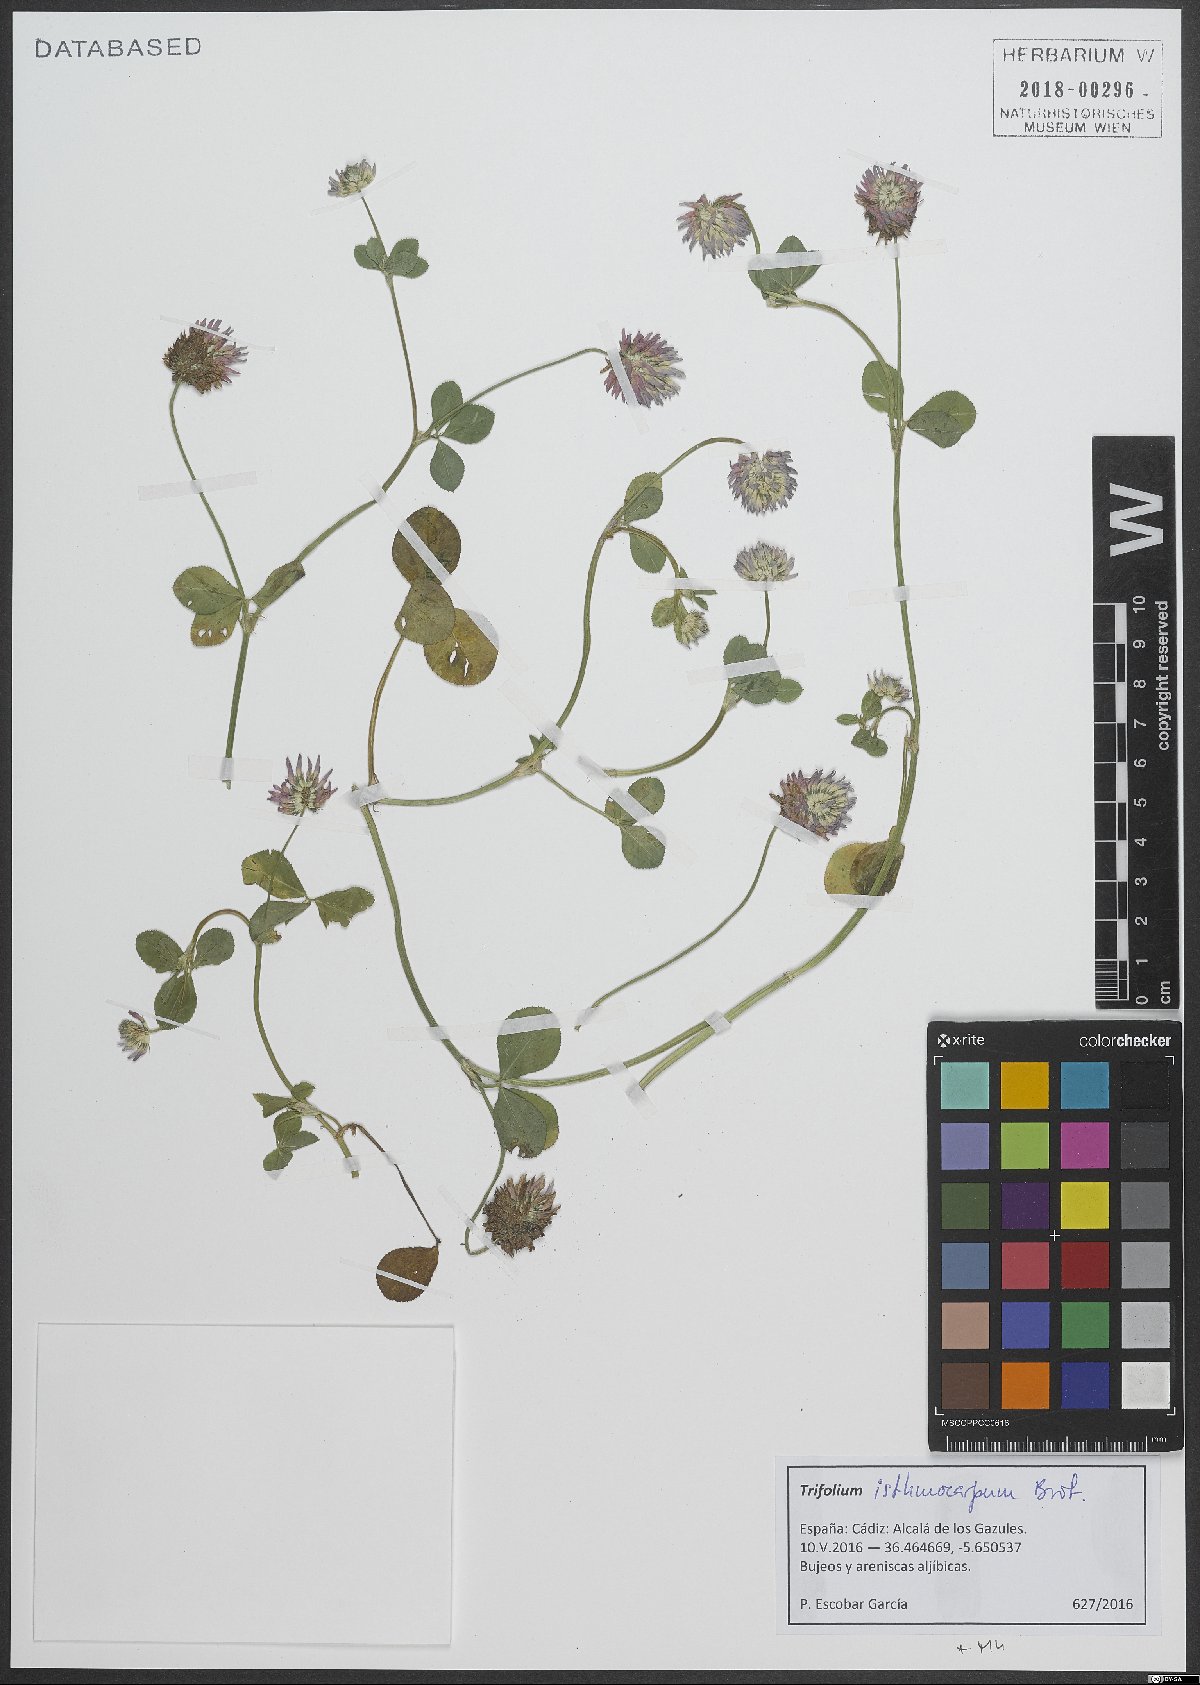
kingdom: Plantae
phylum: Tracheophyta
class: Magnoliopsida
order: Fabales
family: Fabaceae
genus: Trifolium
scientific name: Trifolium isthmocarpum
